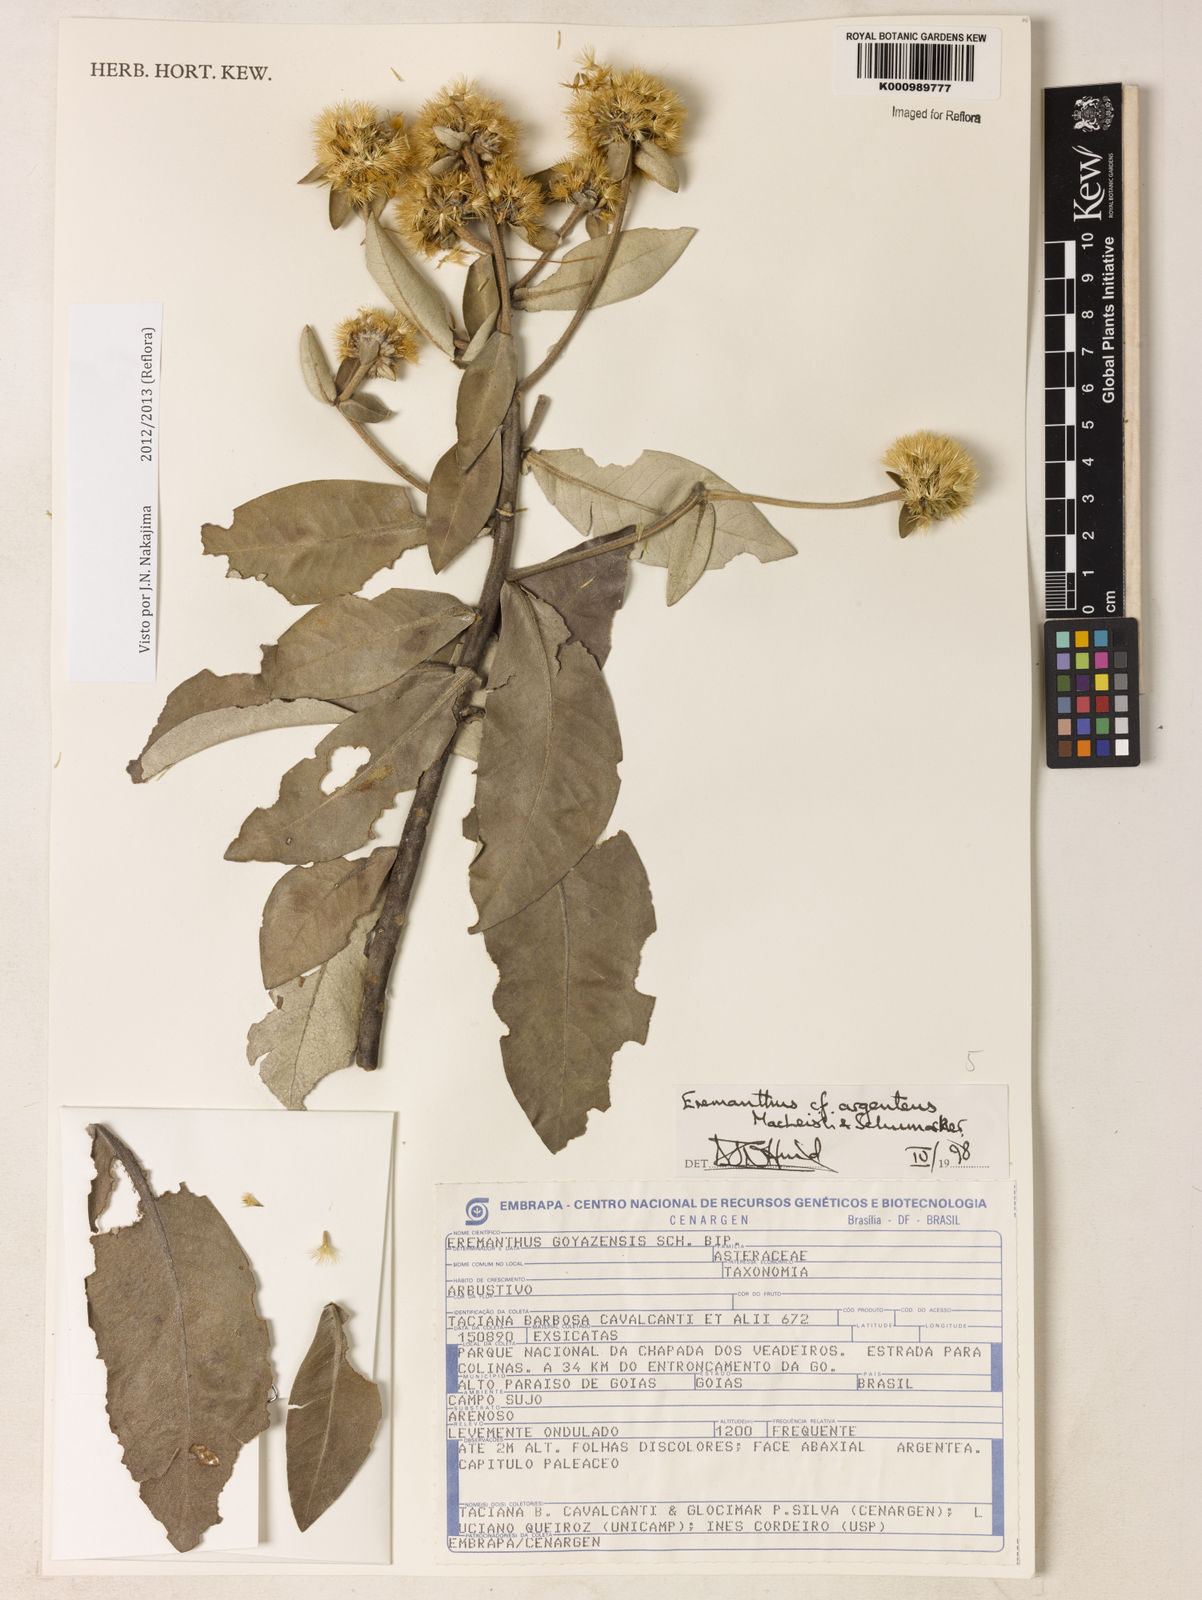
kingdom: Plantae
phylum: Tracheophyta
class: Magnoliopsida
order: Asterales
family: Asteraceae
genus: Eremanthus
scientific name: Eremanthus argenteus
